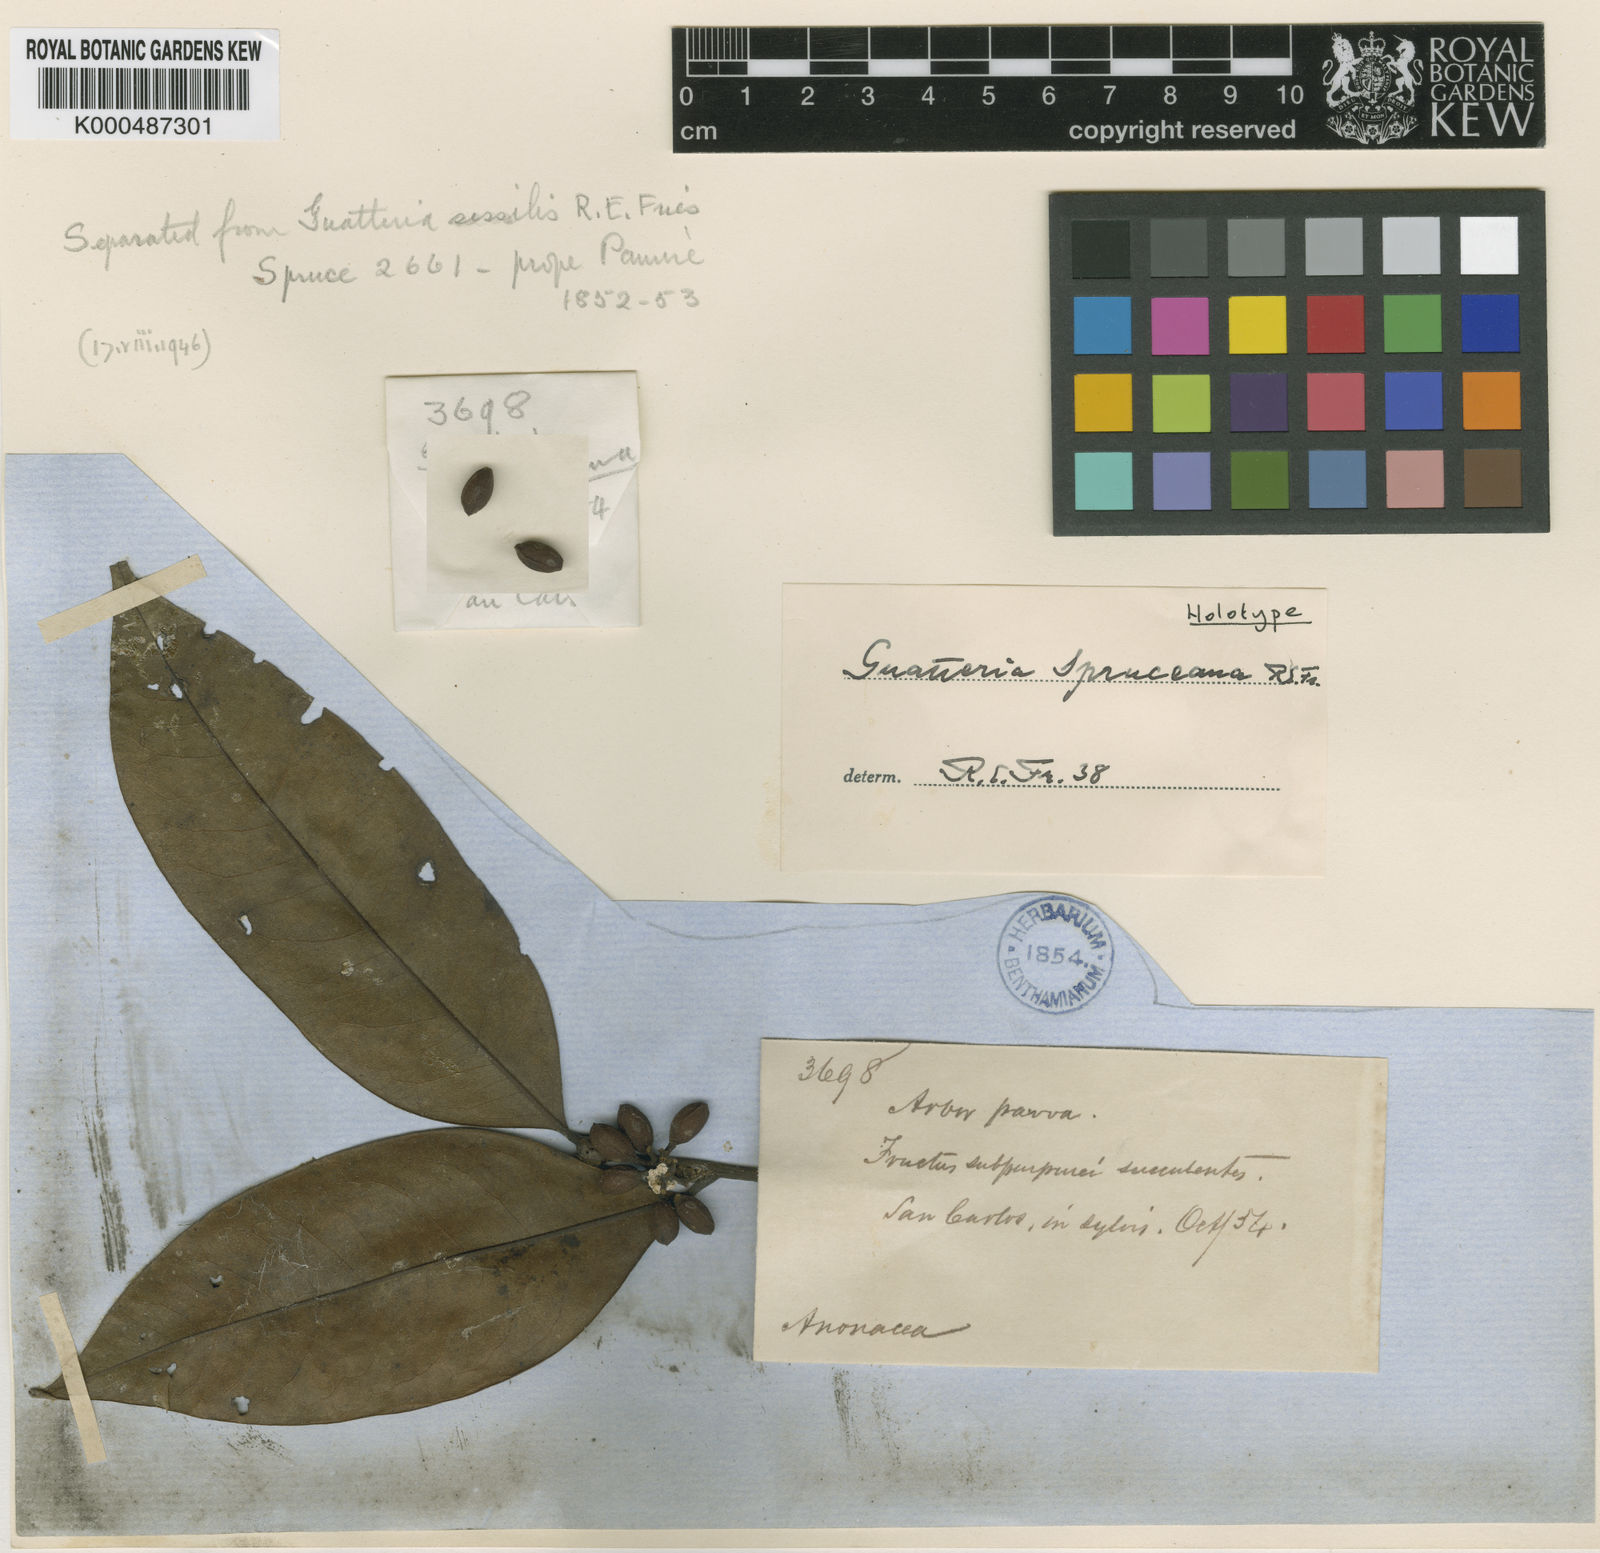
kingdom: Plantae
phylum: Tracheophyta
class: Magnoliopsida
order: Magnoliales
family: Annonaceae
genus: Guatteria
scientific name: Guatteria schomburgkiana
